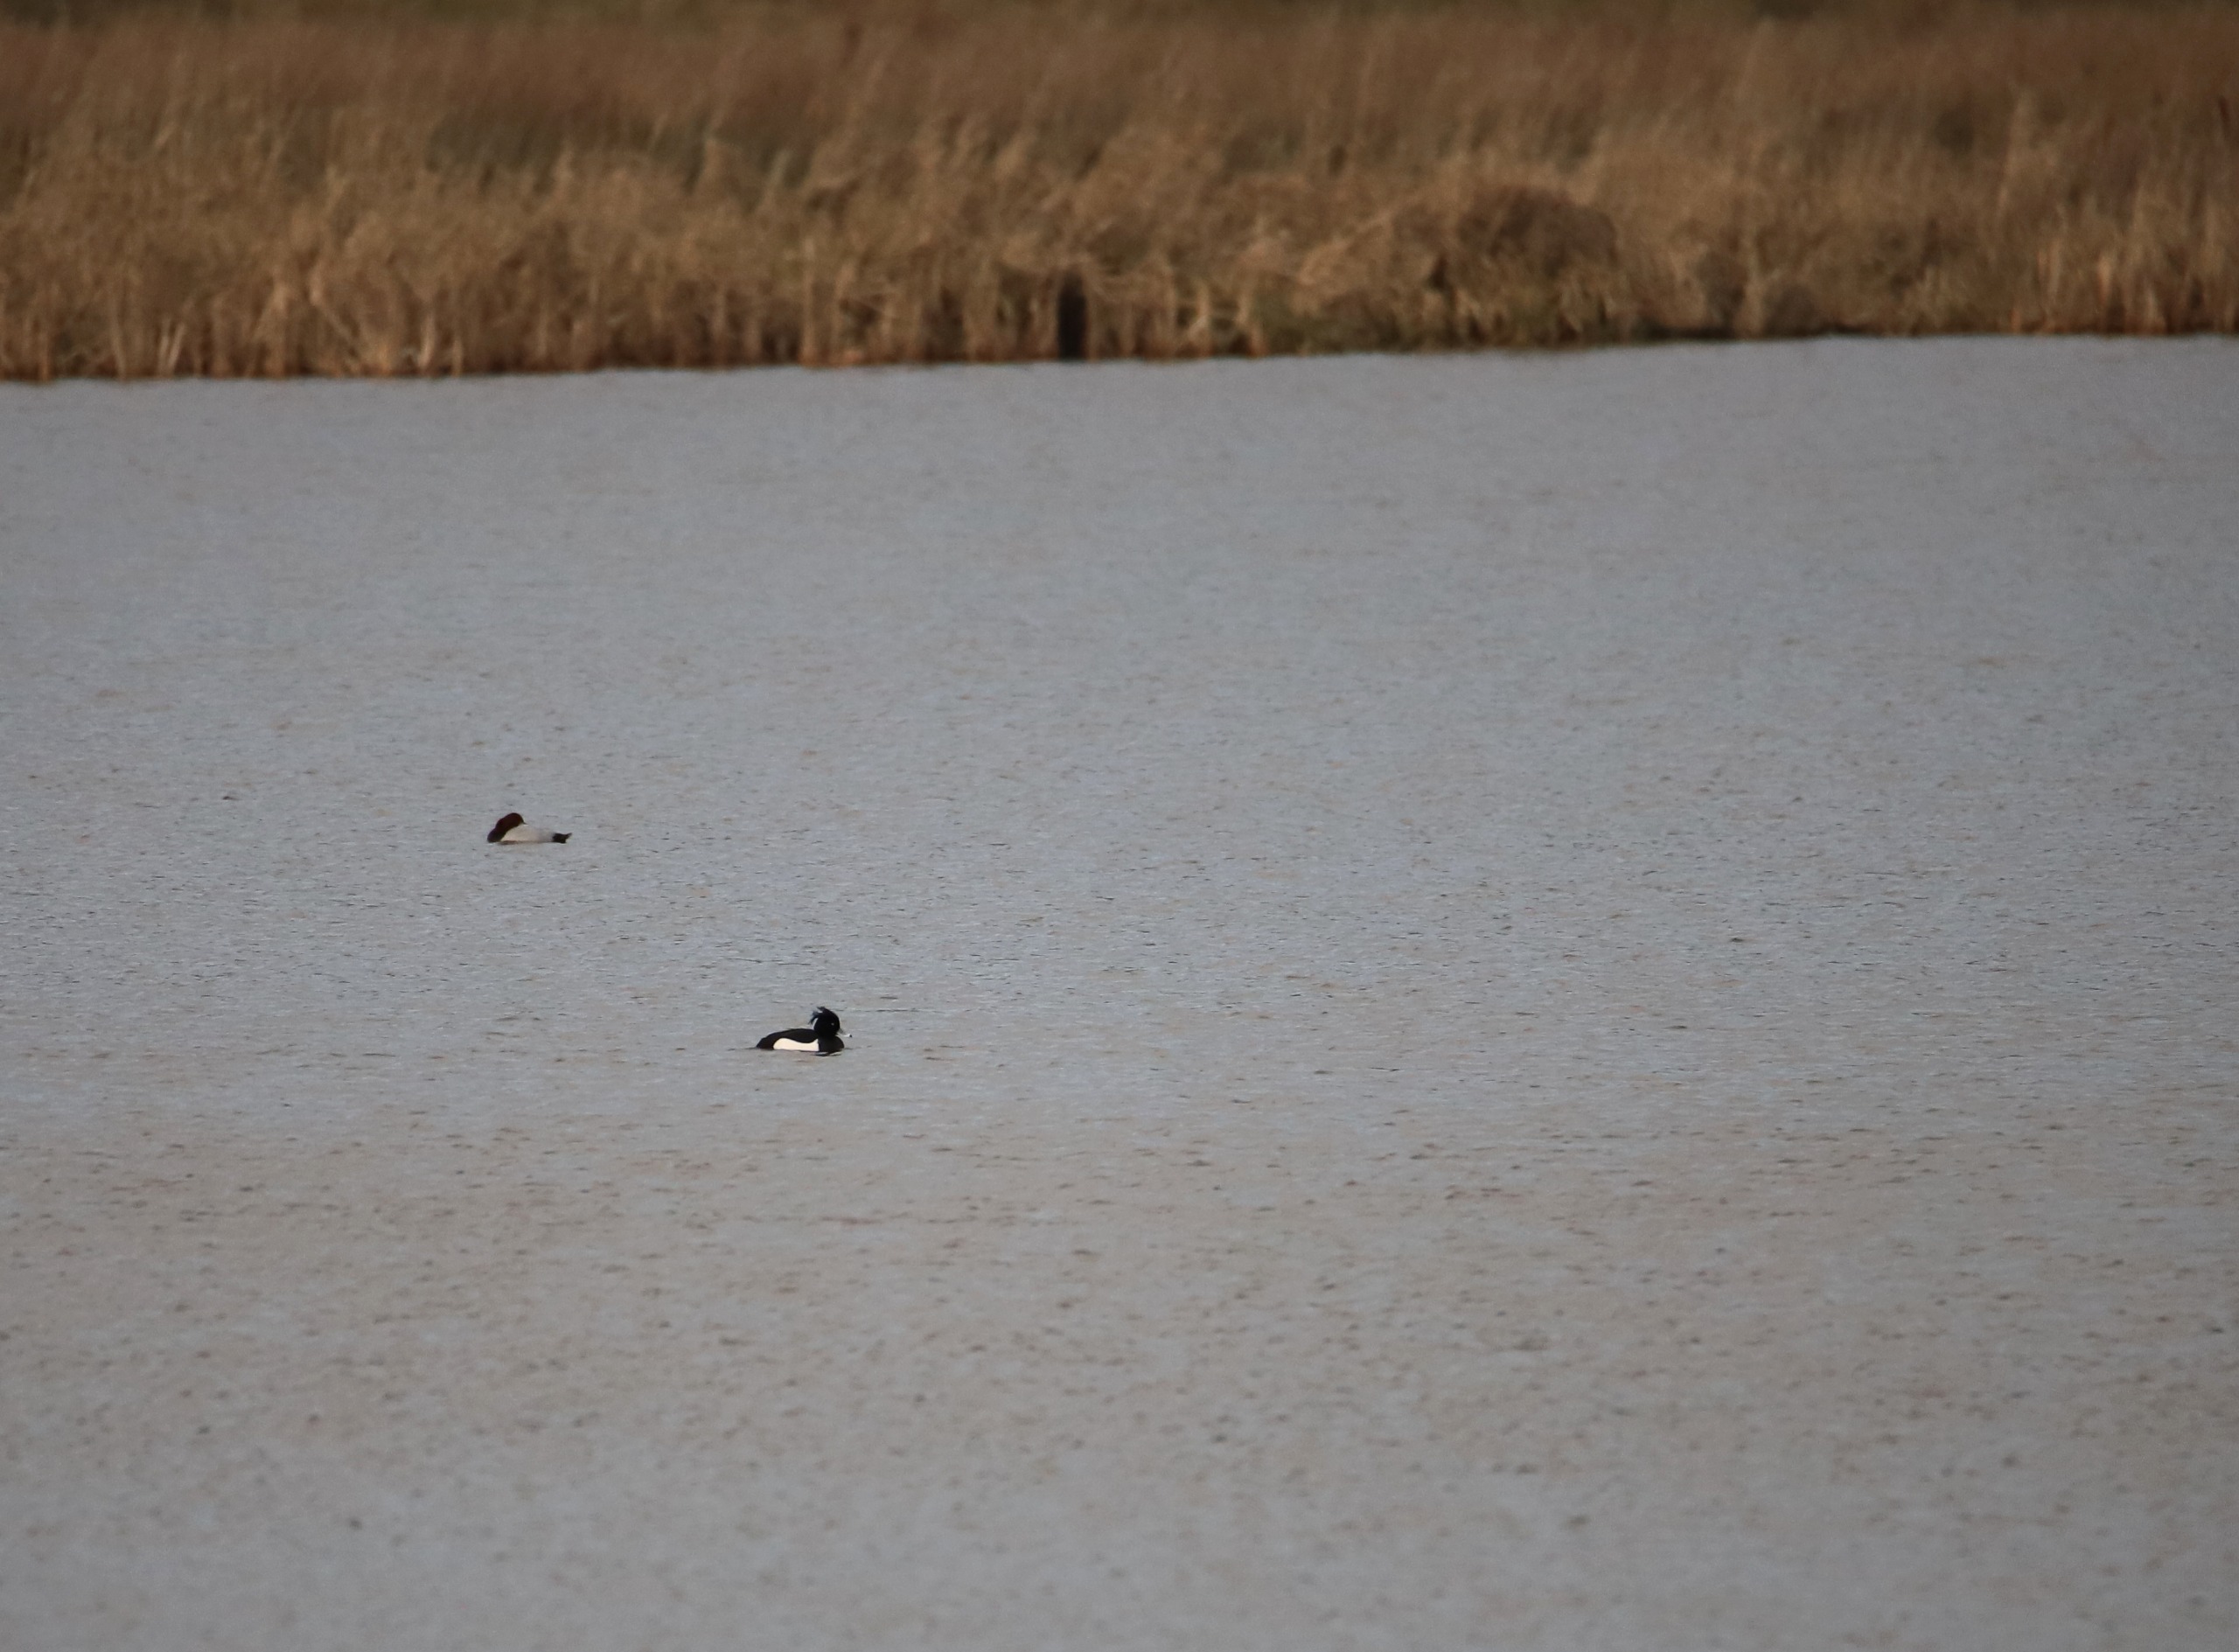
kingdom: Animalia
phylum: Chordata
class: Aves
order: Anseriformes
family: Anatidae
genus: Aythya
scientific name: Aythya fuligula
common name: Troldand
